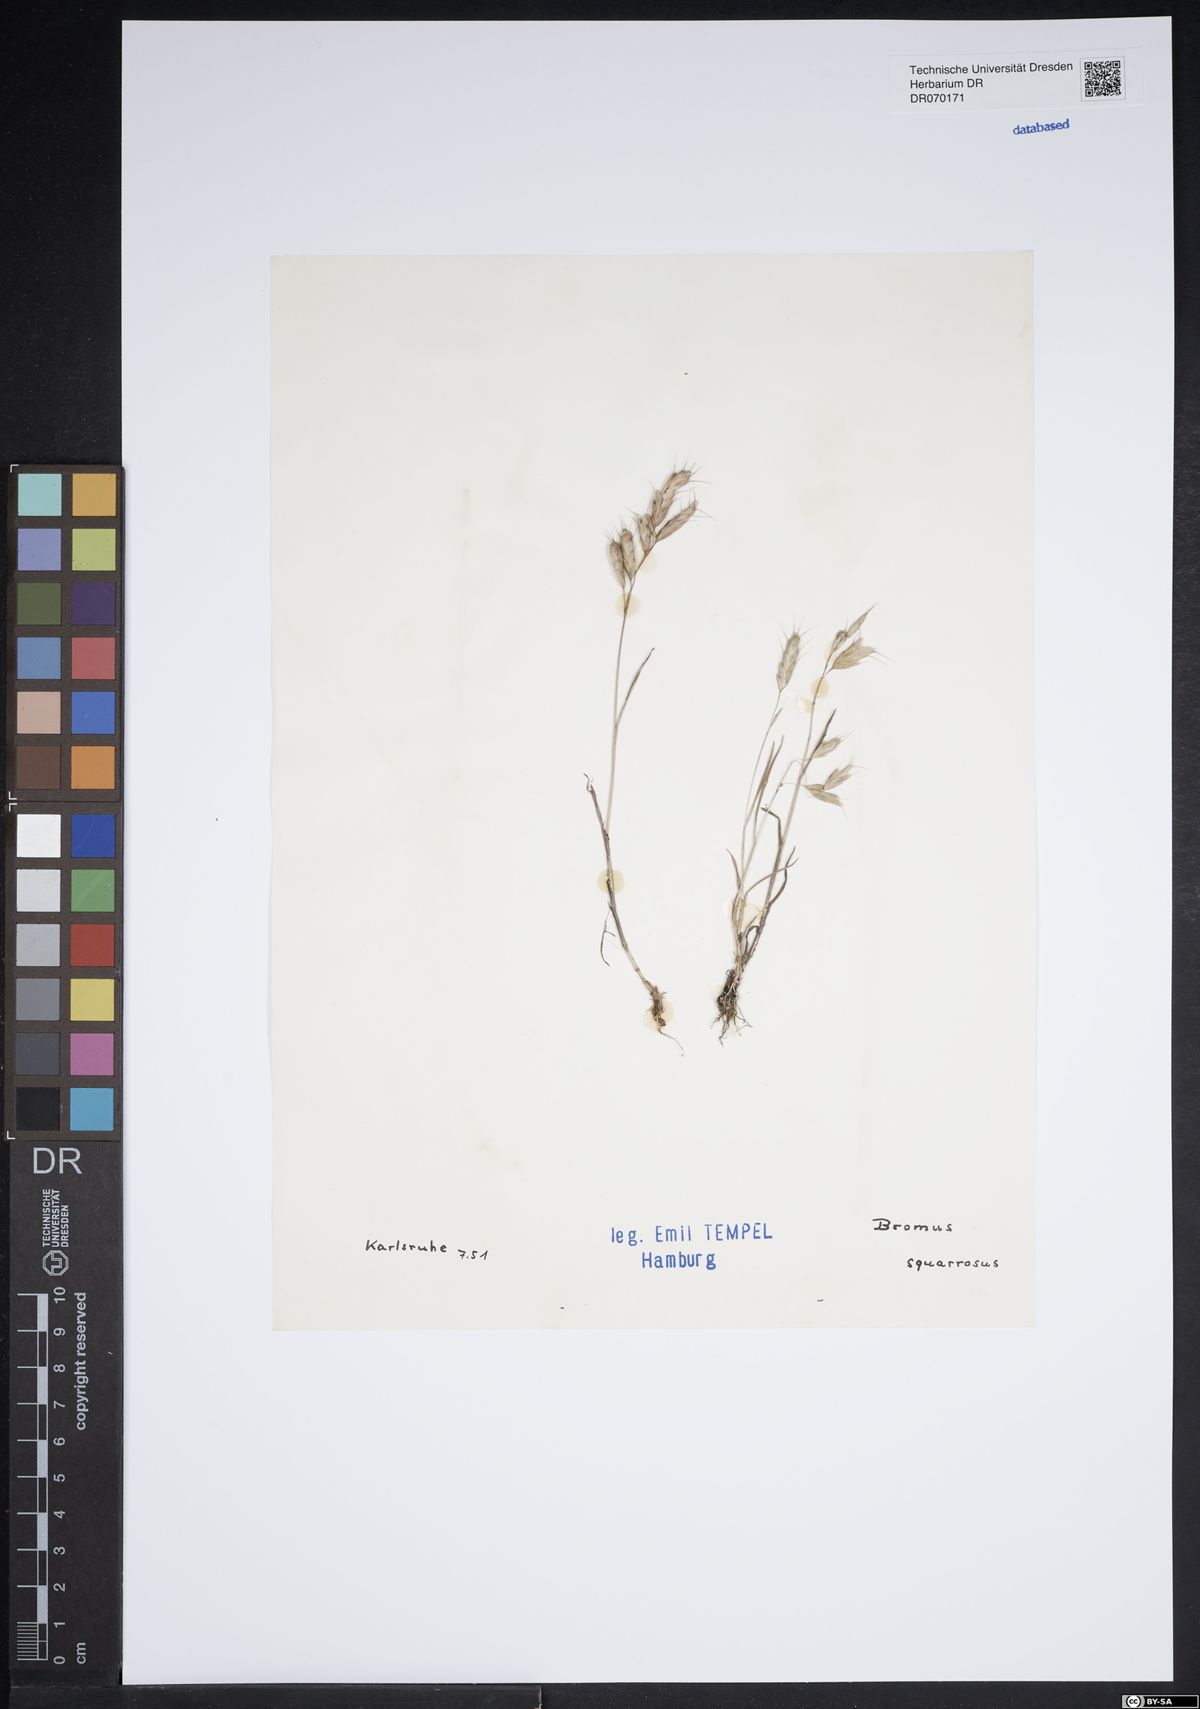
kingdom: Plantae
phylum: Tracheophyta
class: Liliopsida
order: Poales
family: Poaceae
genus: Bromus
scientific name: Bromus squarrosus
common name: Corn brome
